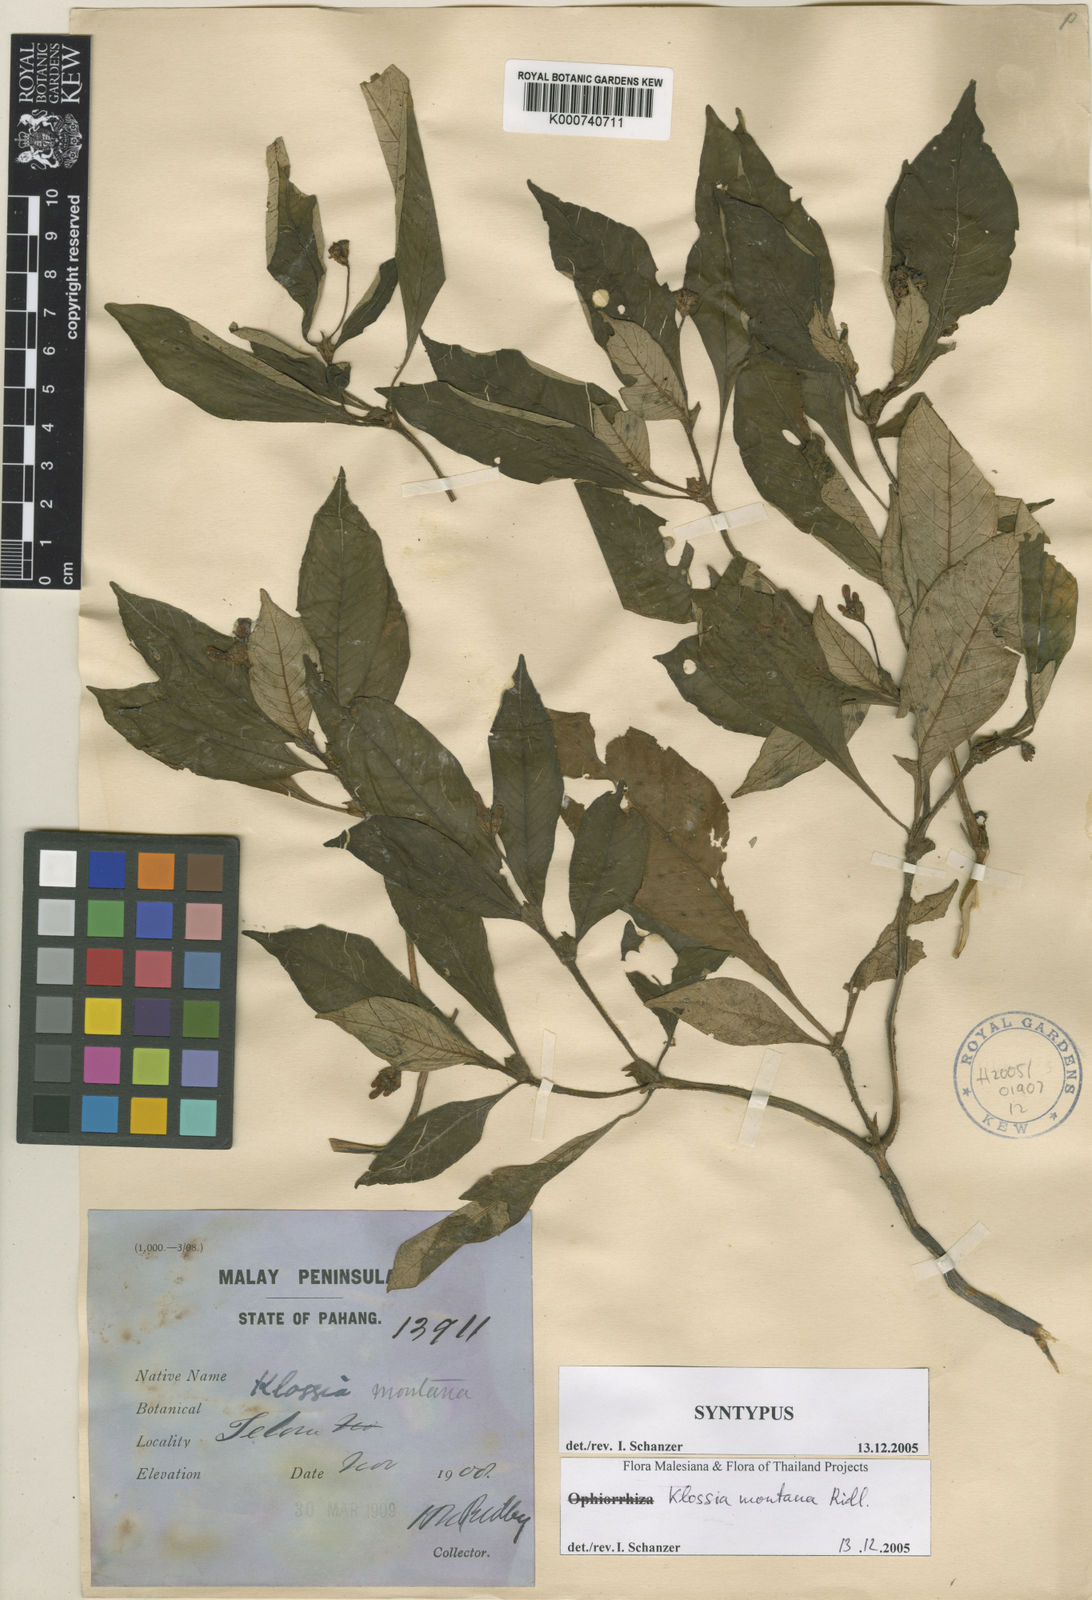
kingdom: Plantae
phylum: Tracheophyta
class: Magnoliopsida
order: Gentianales
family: Rubiaceae
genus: Klossia
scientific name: Klossia montana
